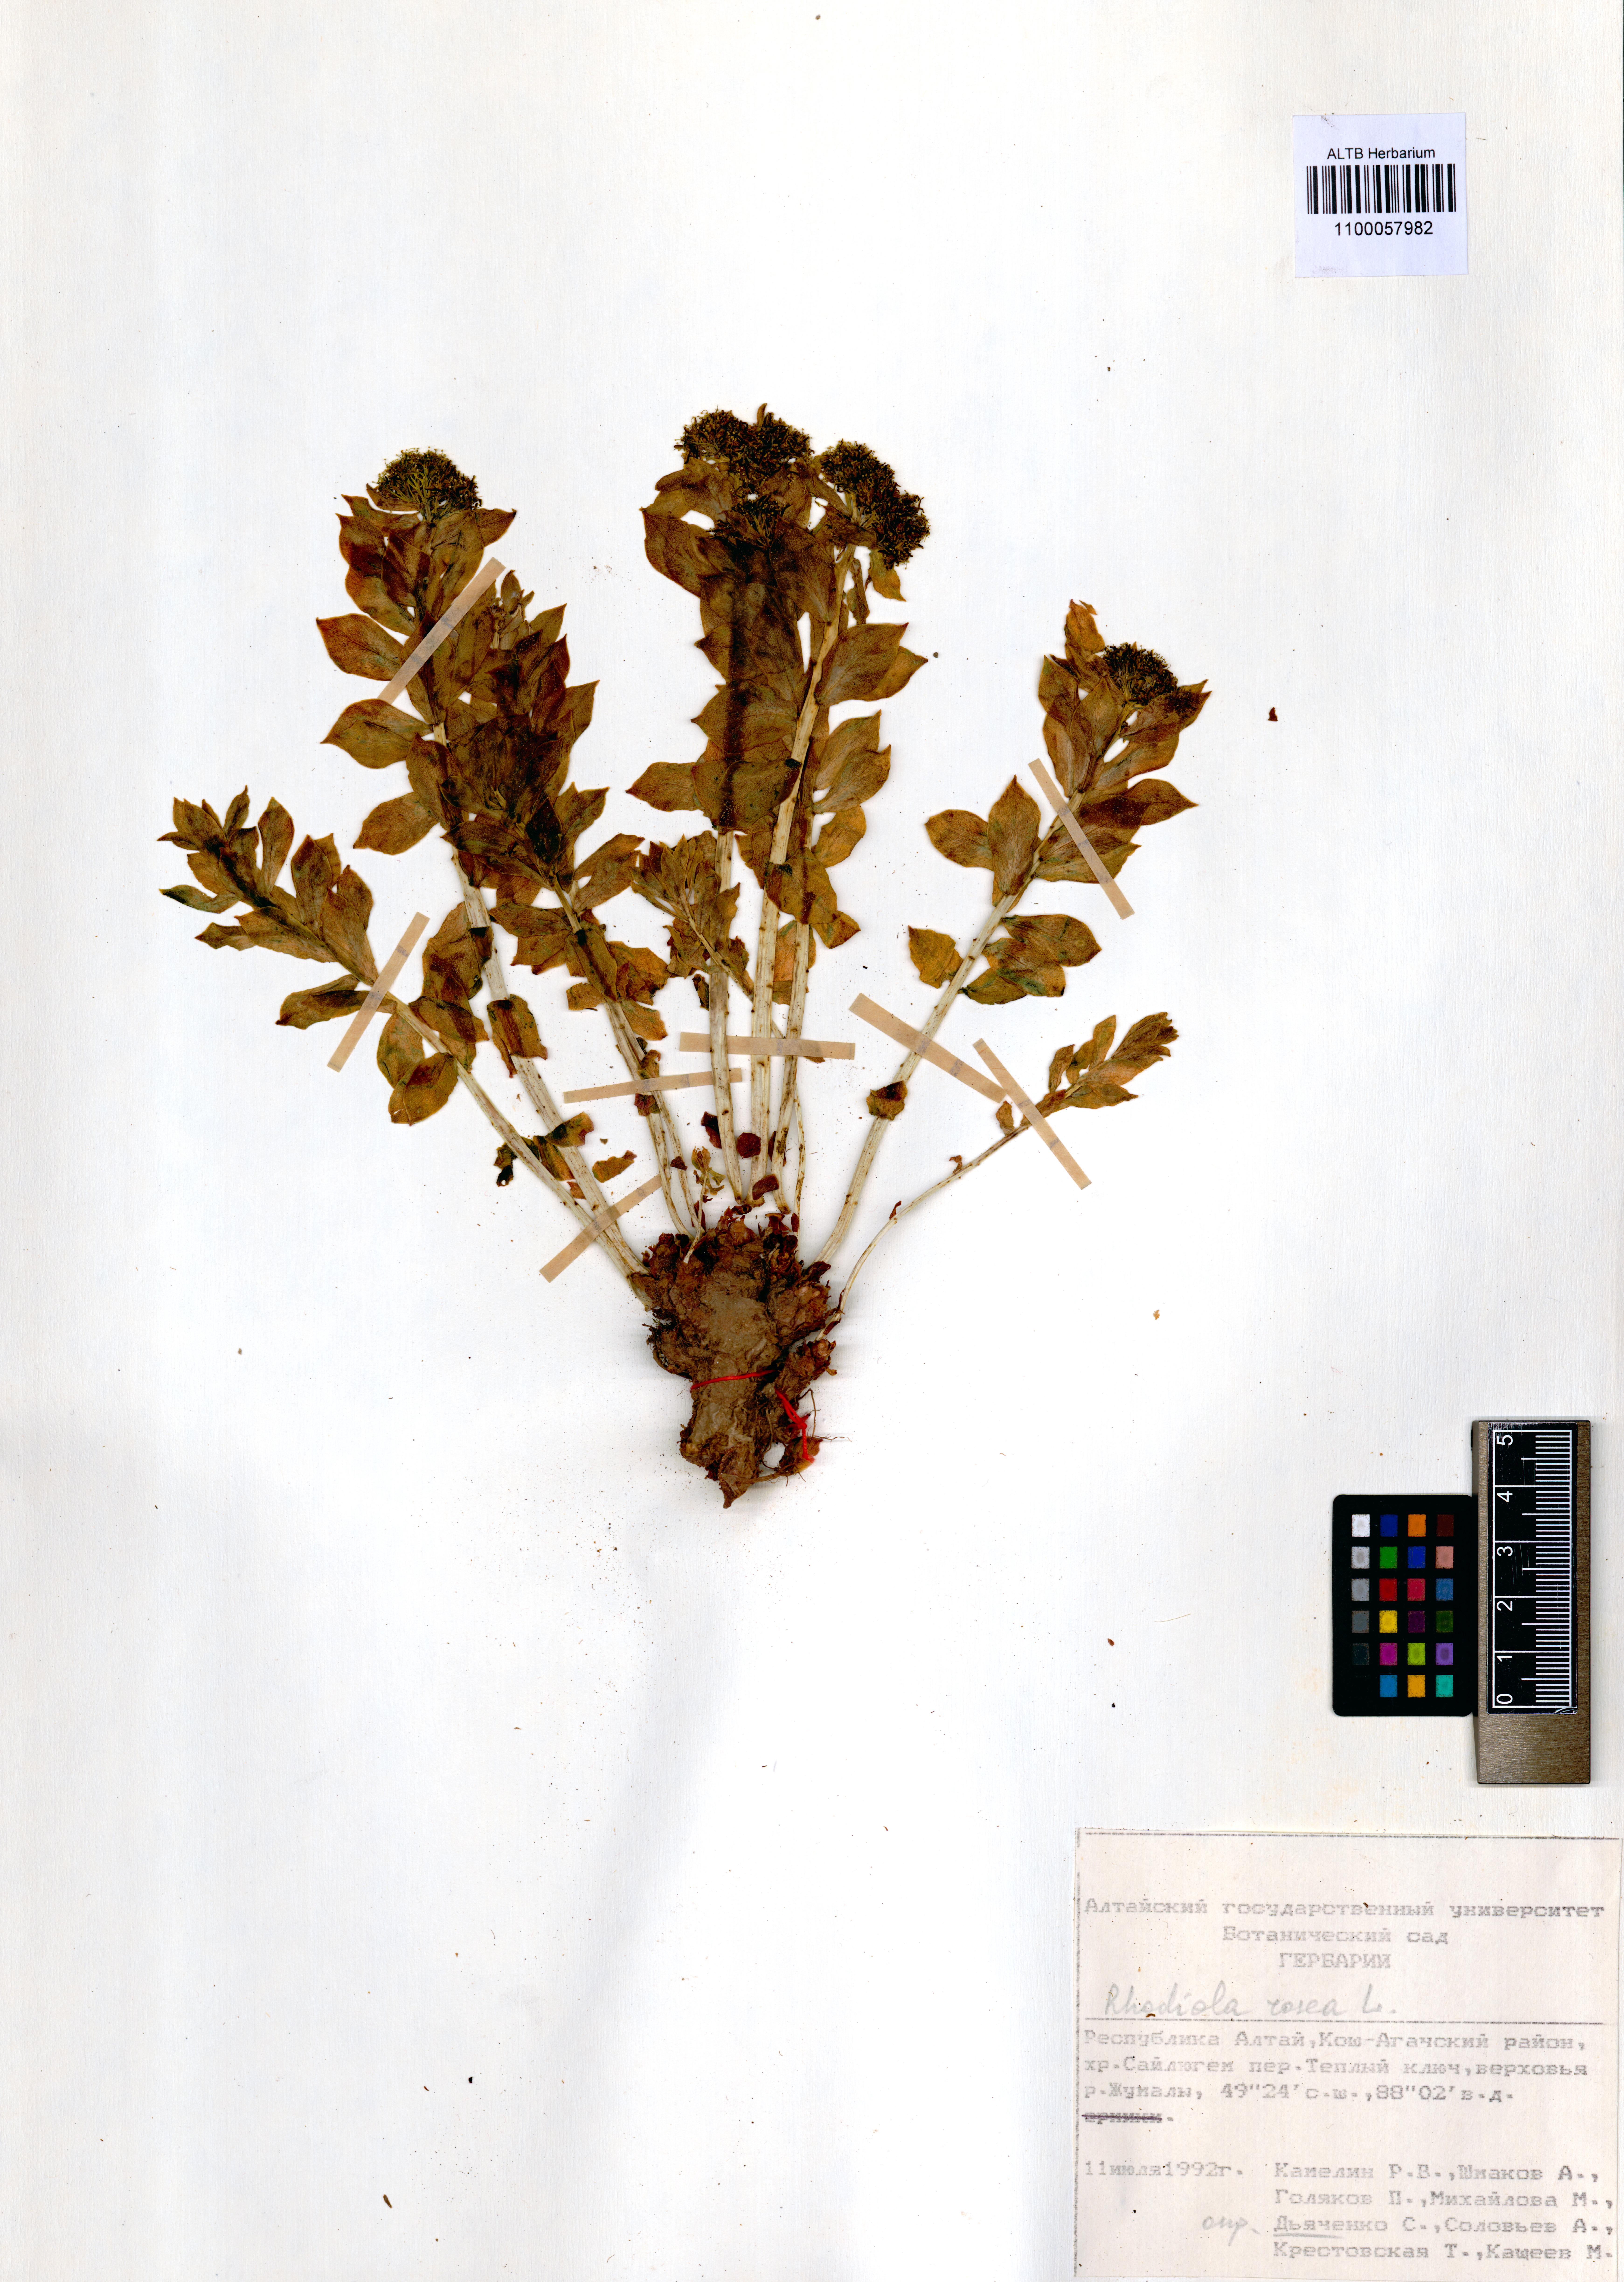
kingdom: Plantae
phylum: Tracheophyta
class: Magnoliopsida
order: Saxifragales
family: Crassulaceae
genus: Rhodiola
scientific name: Rhodiola rosea
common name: Roseroot
